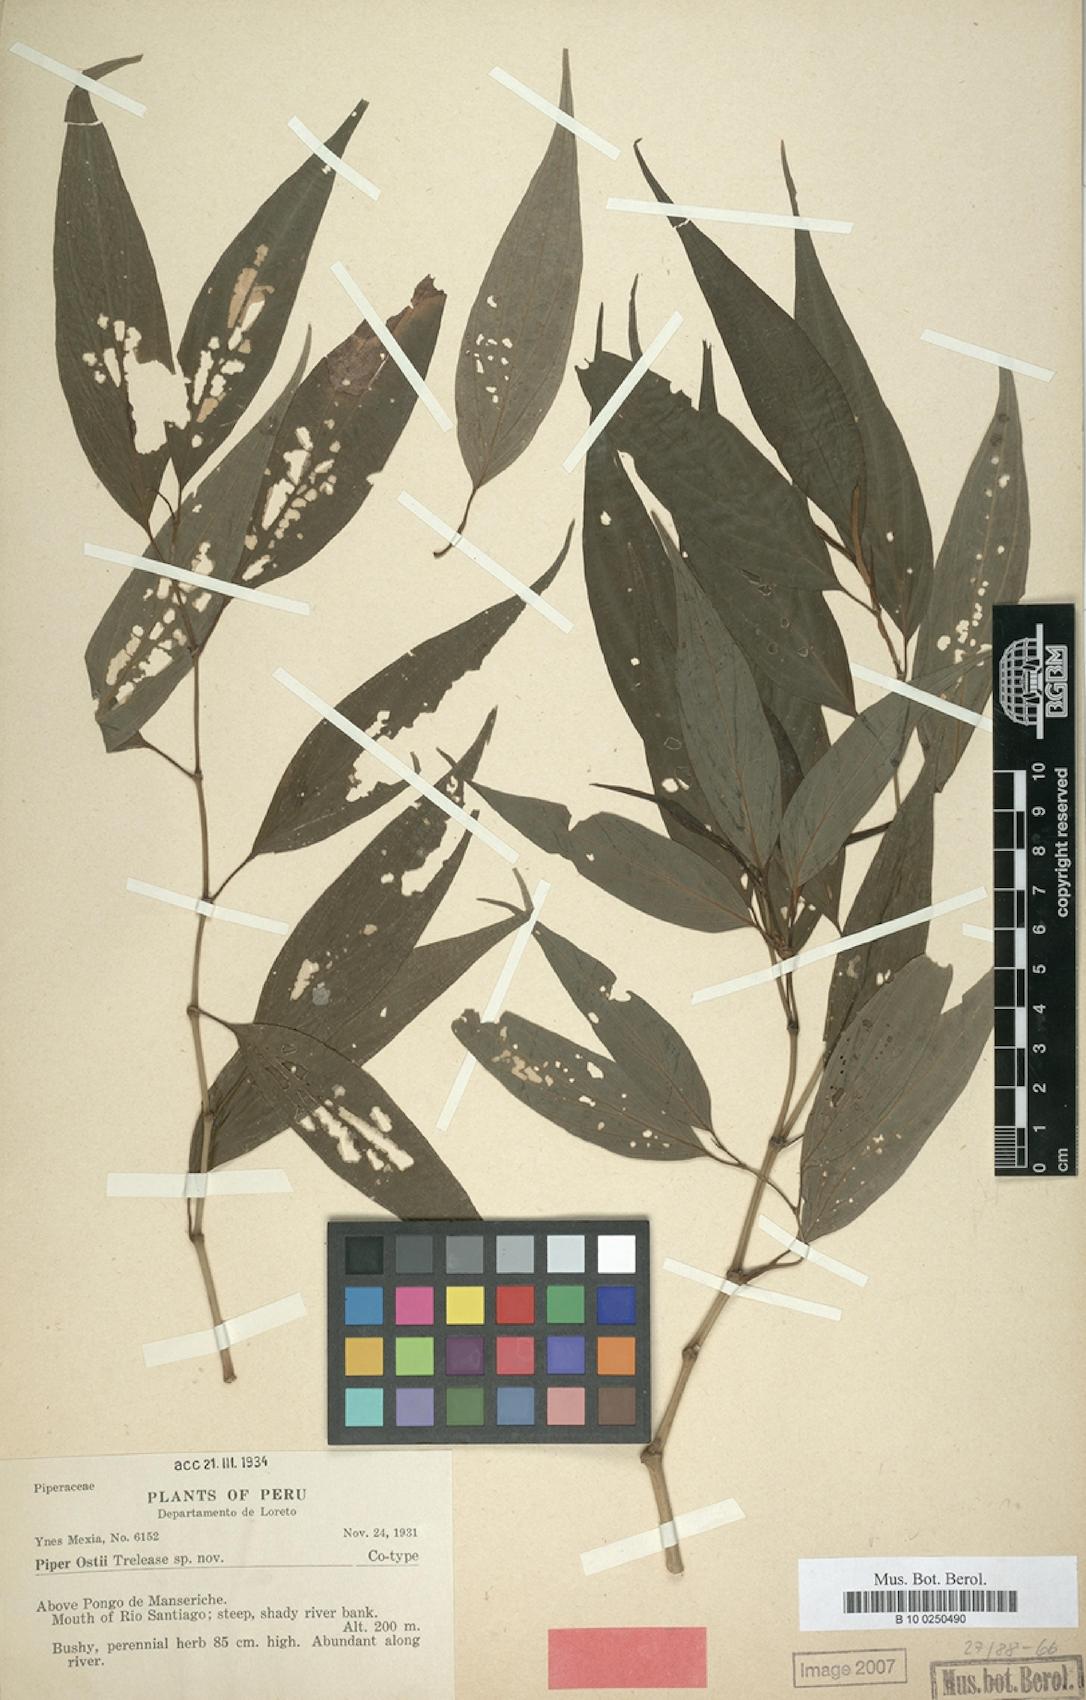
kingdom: Plantae
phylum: Tracheophyta
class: Magnoliopsida
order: Piperales
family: Piperaceae
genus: Piper
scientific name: Piper ostii
